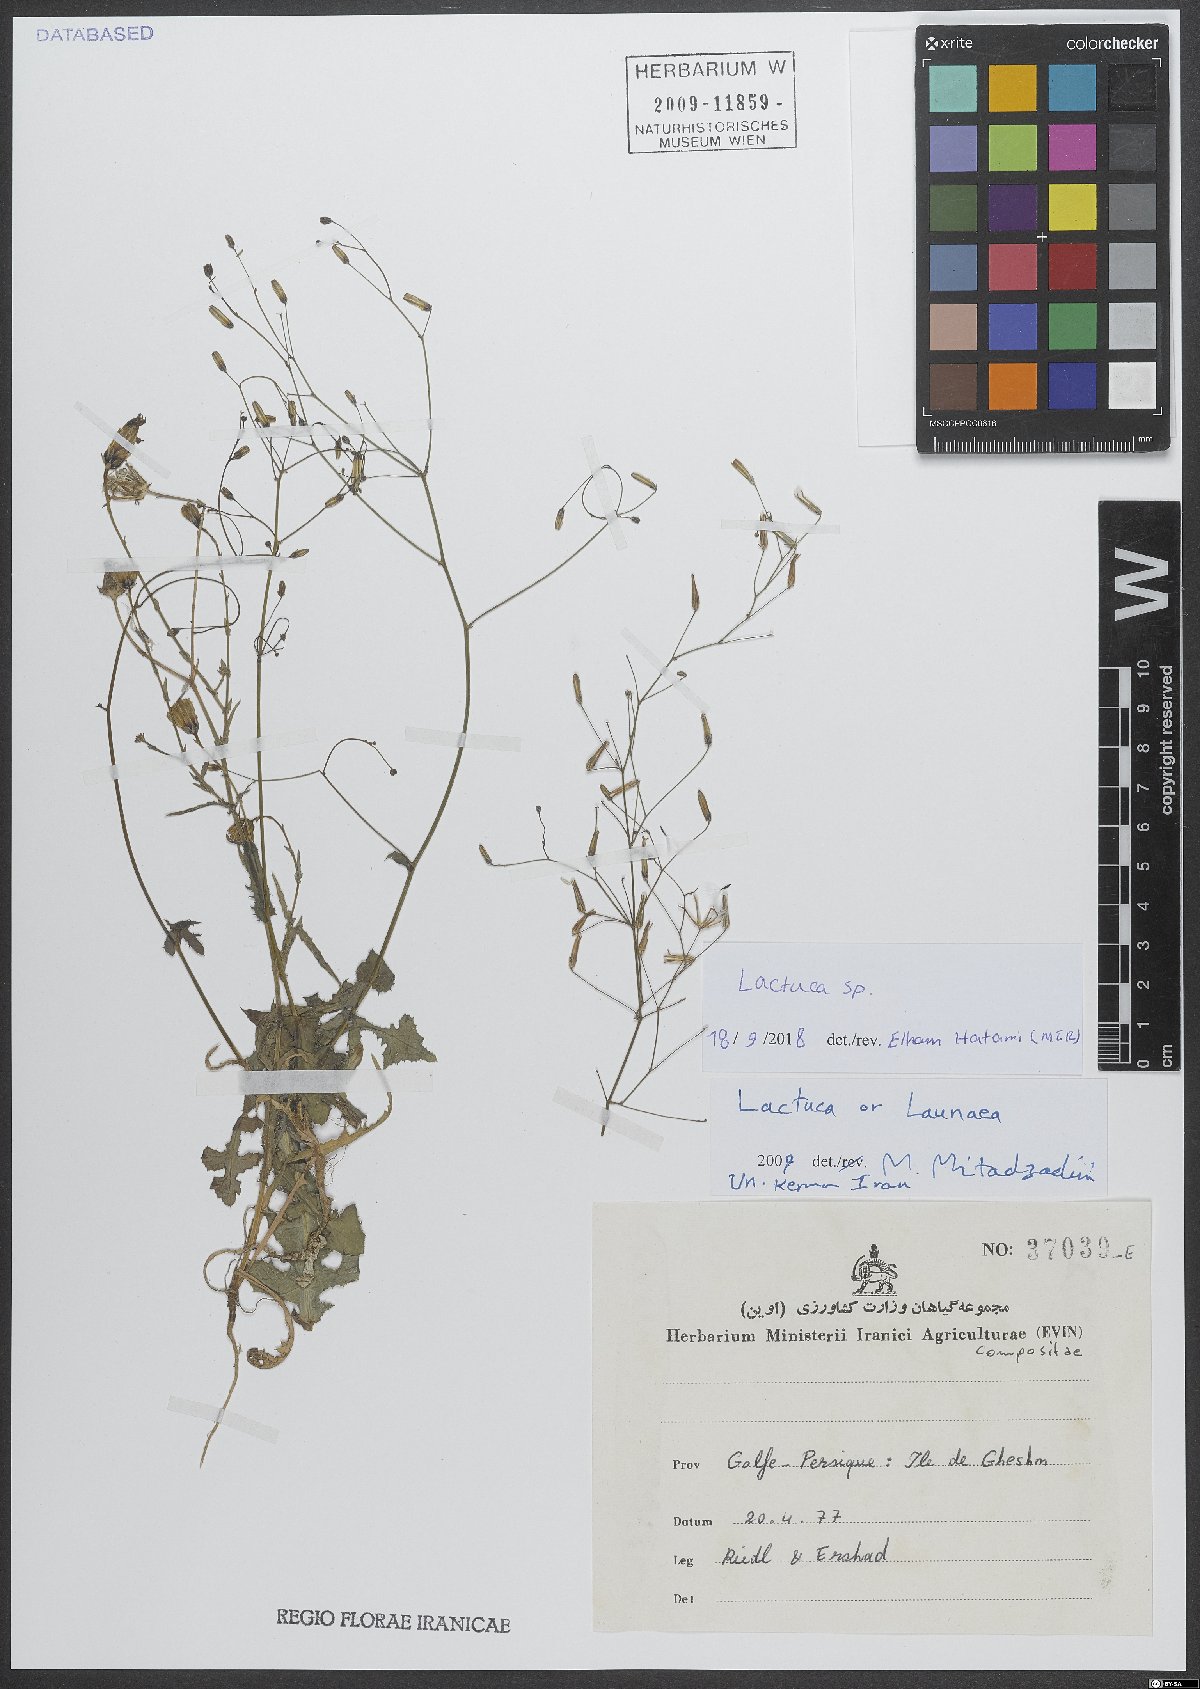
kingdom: Plantae
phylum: Tracheophyta
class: Magnoliopsida
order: Asterales
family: Asteraceae
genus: Lactuca
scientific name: Lactuca
